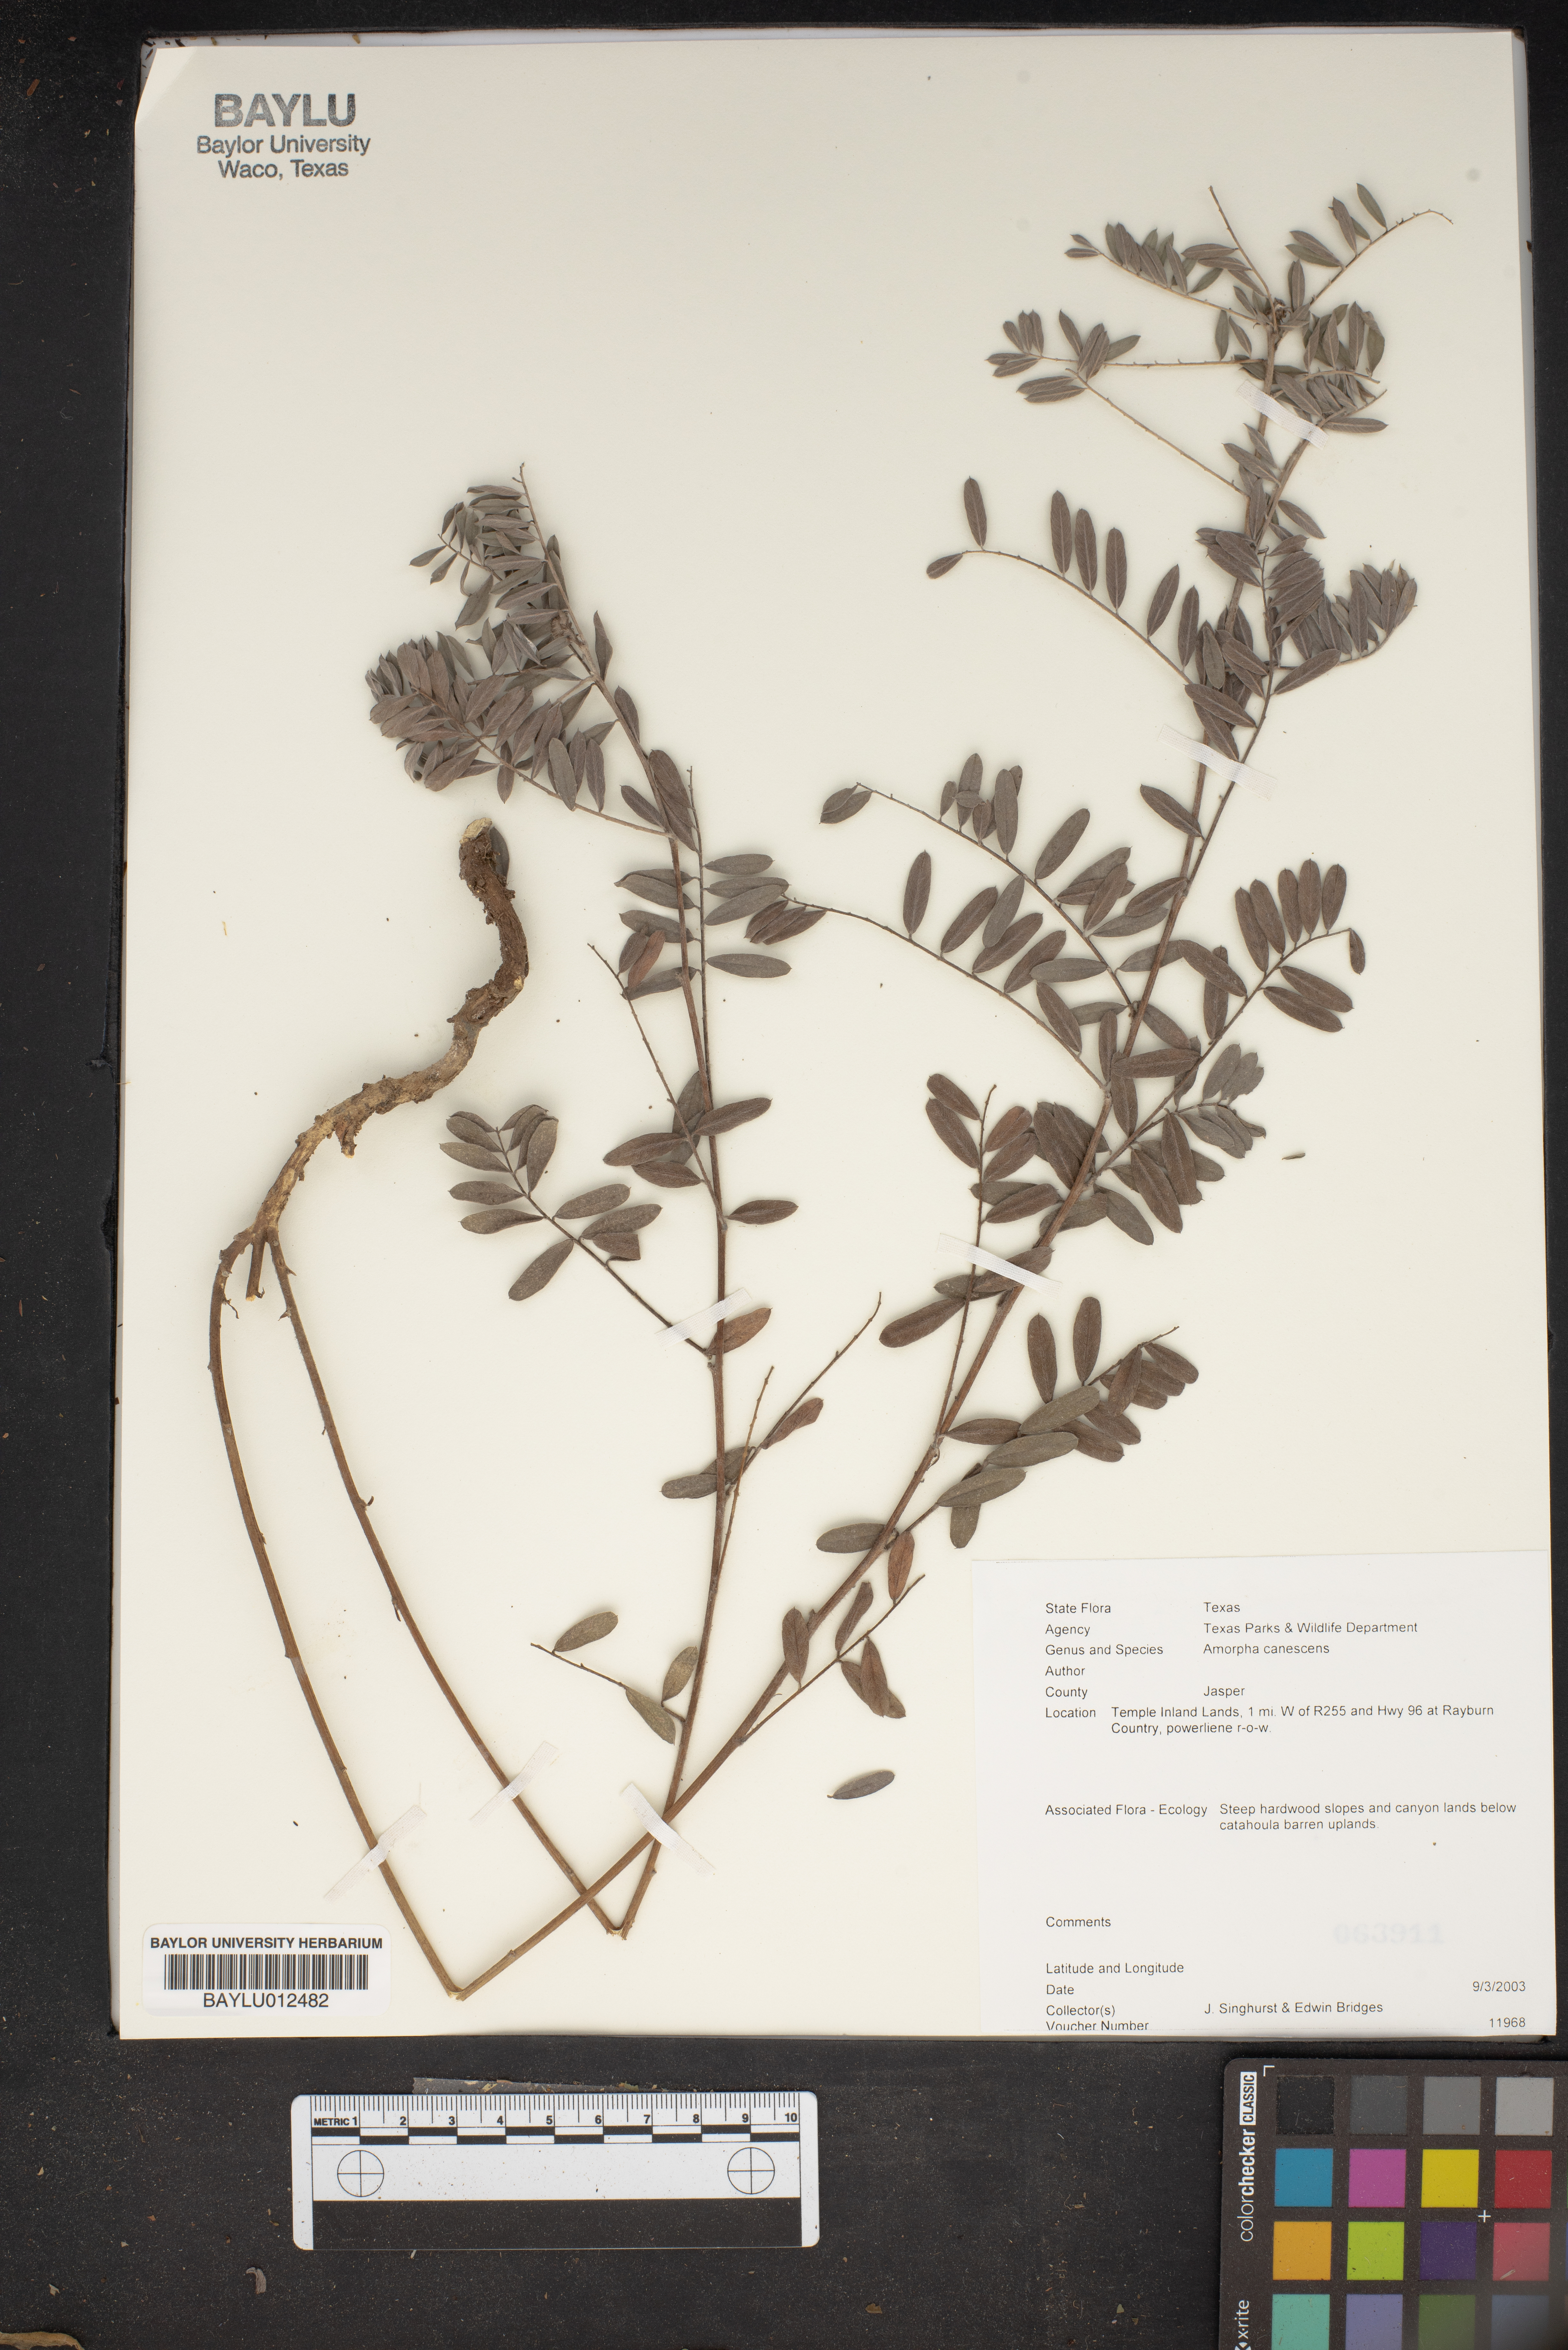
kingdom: Plantae
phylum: Tracheophyta
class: Magnoliopsida
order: Fabales
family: Fabaceae
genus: Amorpha
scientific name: Amorpha canescens
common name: Leadplant
